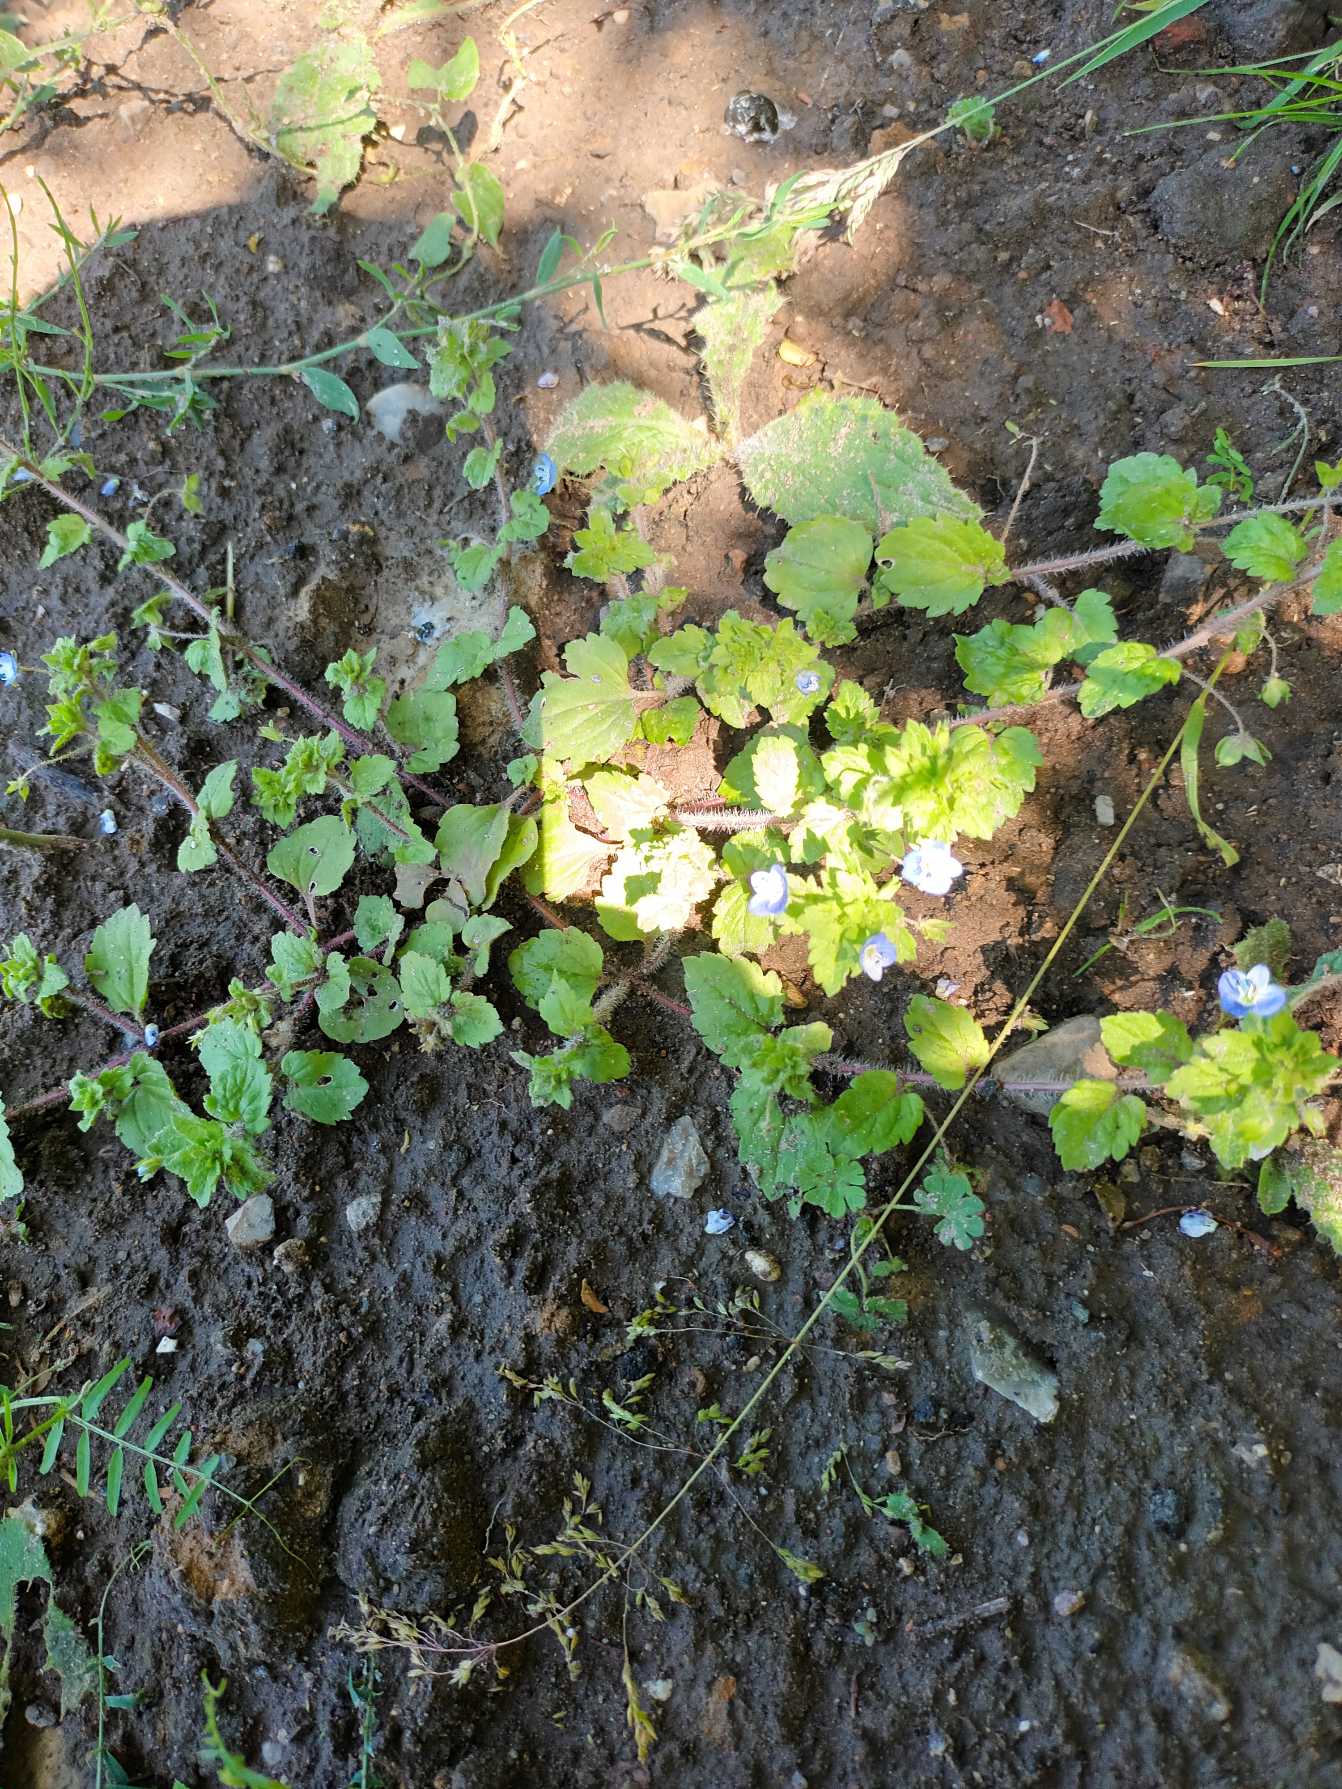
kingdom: Plantae
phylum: Tracheophyta
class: Magnoliopsida
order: Lamiales
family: Plantaginaceae
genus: Veronica
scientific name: Veronica persica
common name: Storkronet ærenpris
